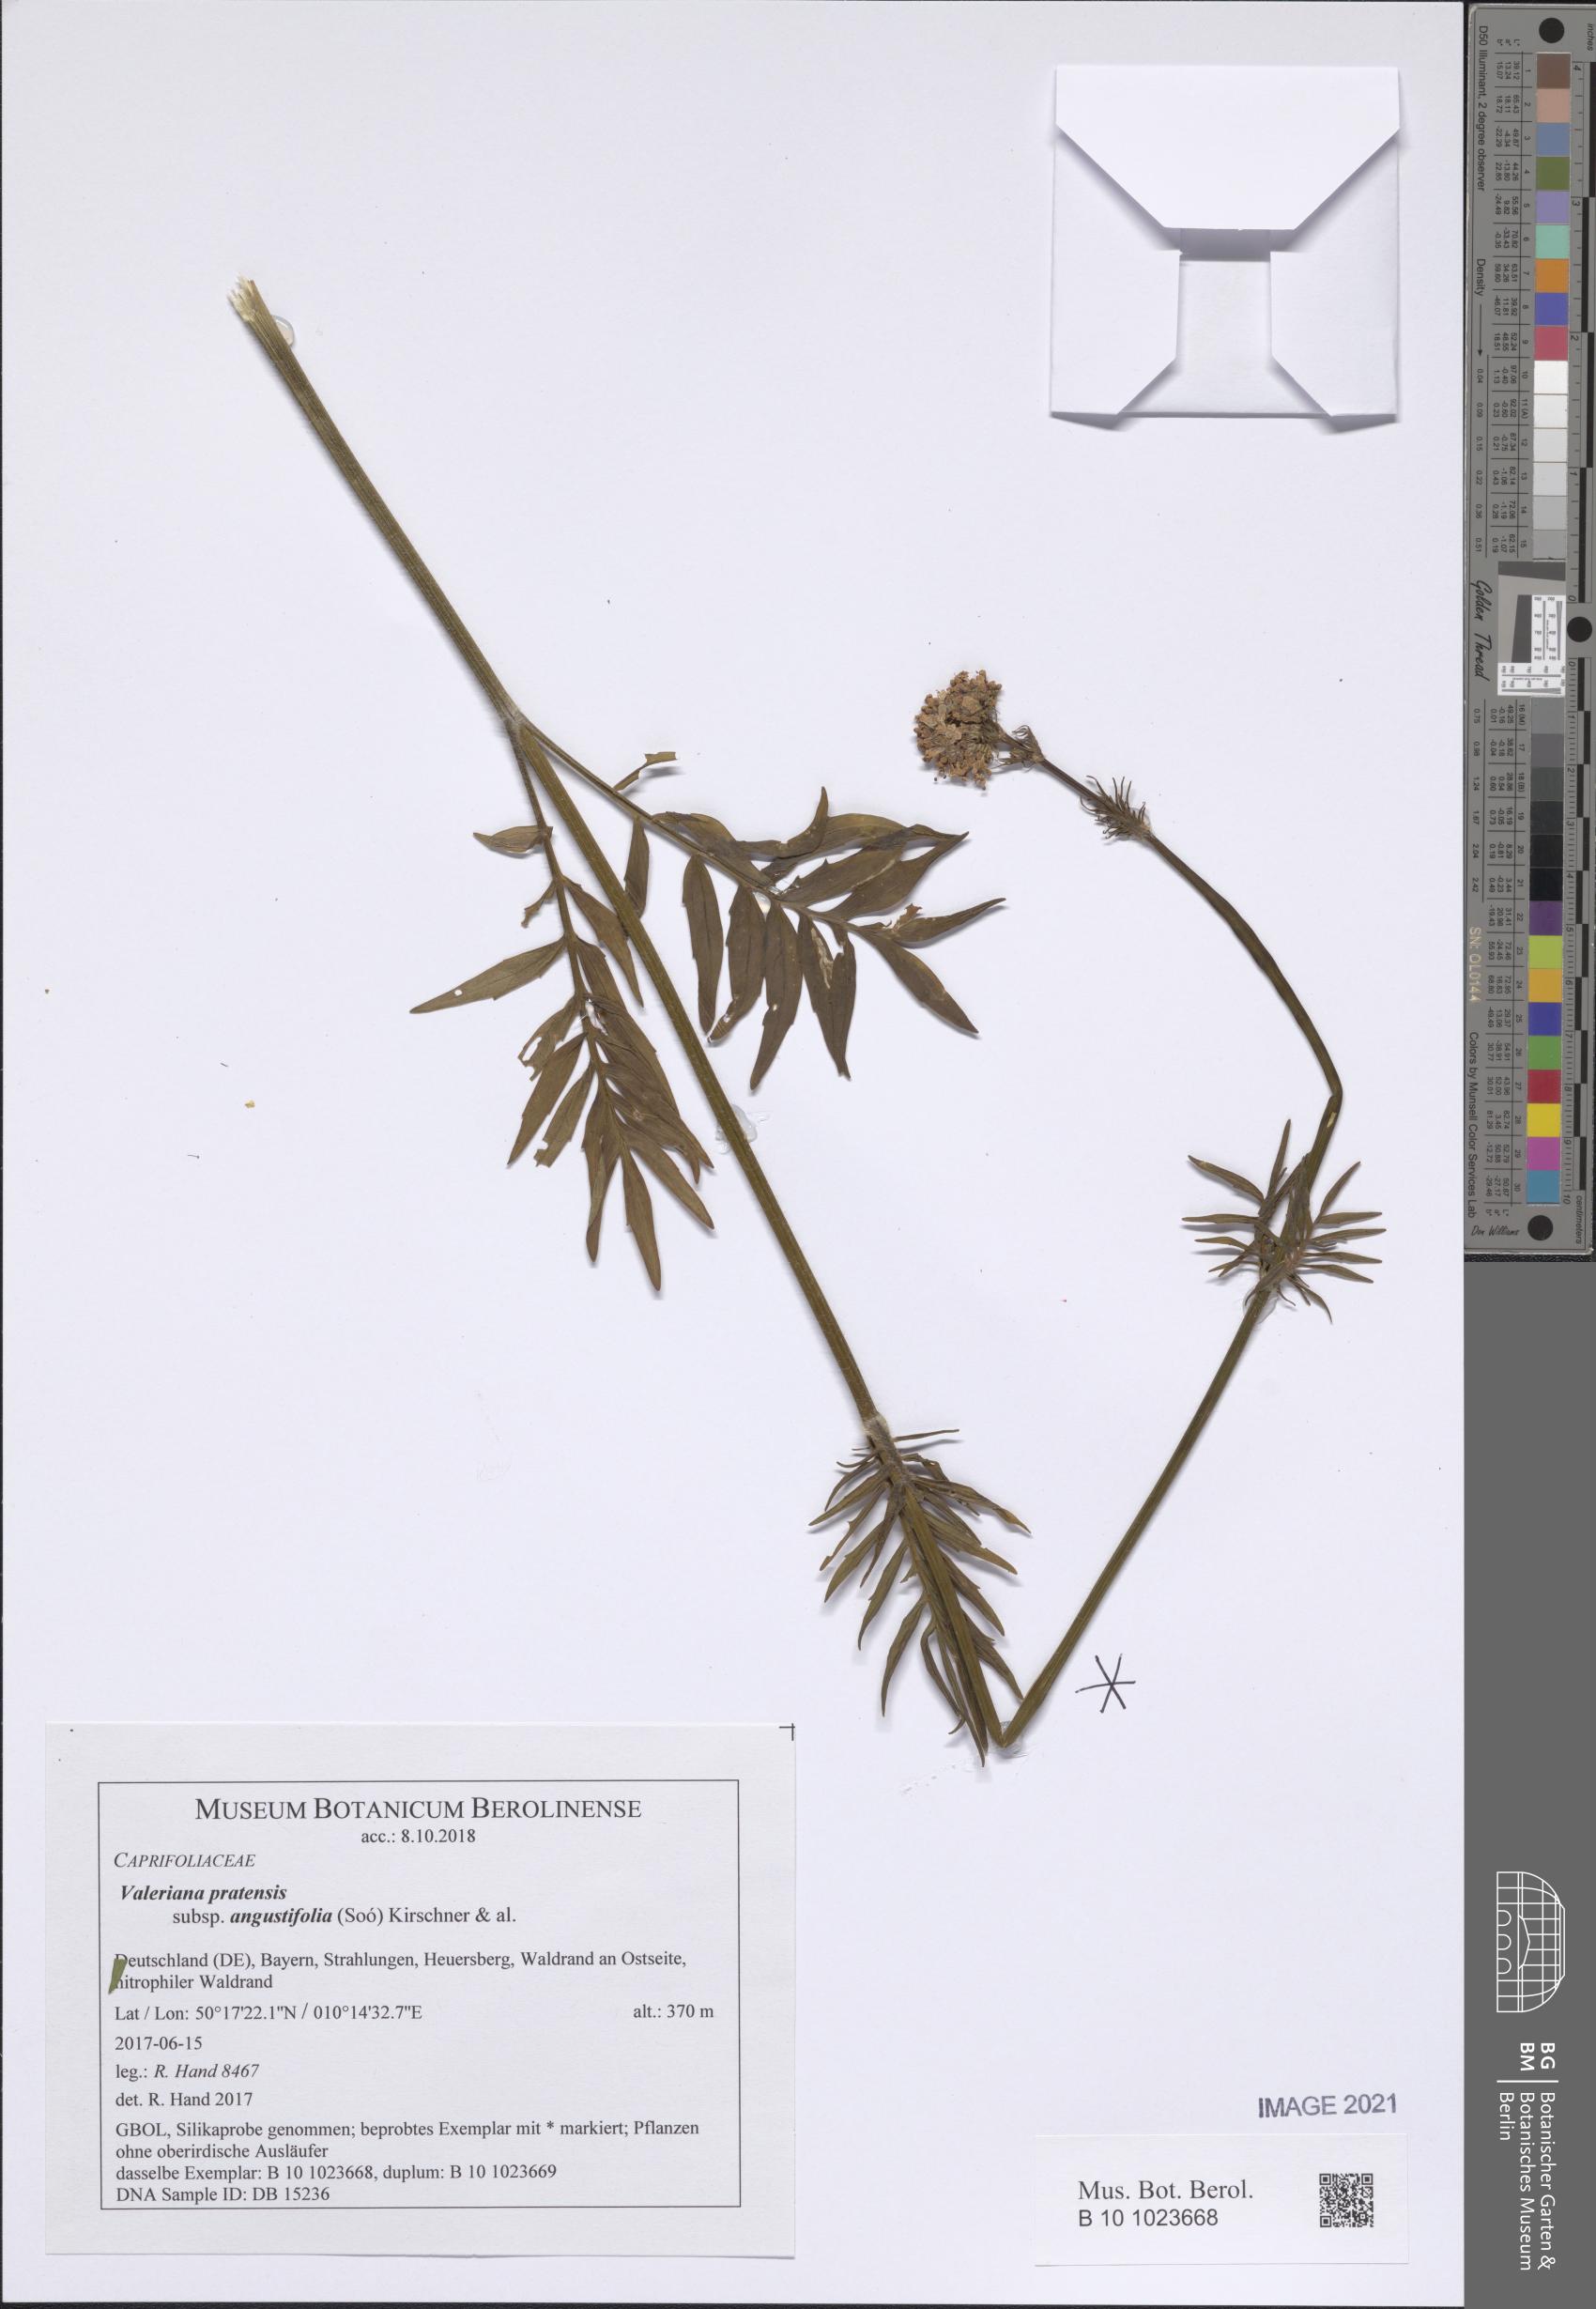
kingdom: Plantae
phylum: Tracheophyta
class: Magnoliopsida
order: Dipsacales
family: Caprifoliaceae
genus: Valeriana
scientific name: Valeriana pratensis
